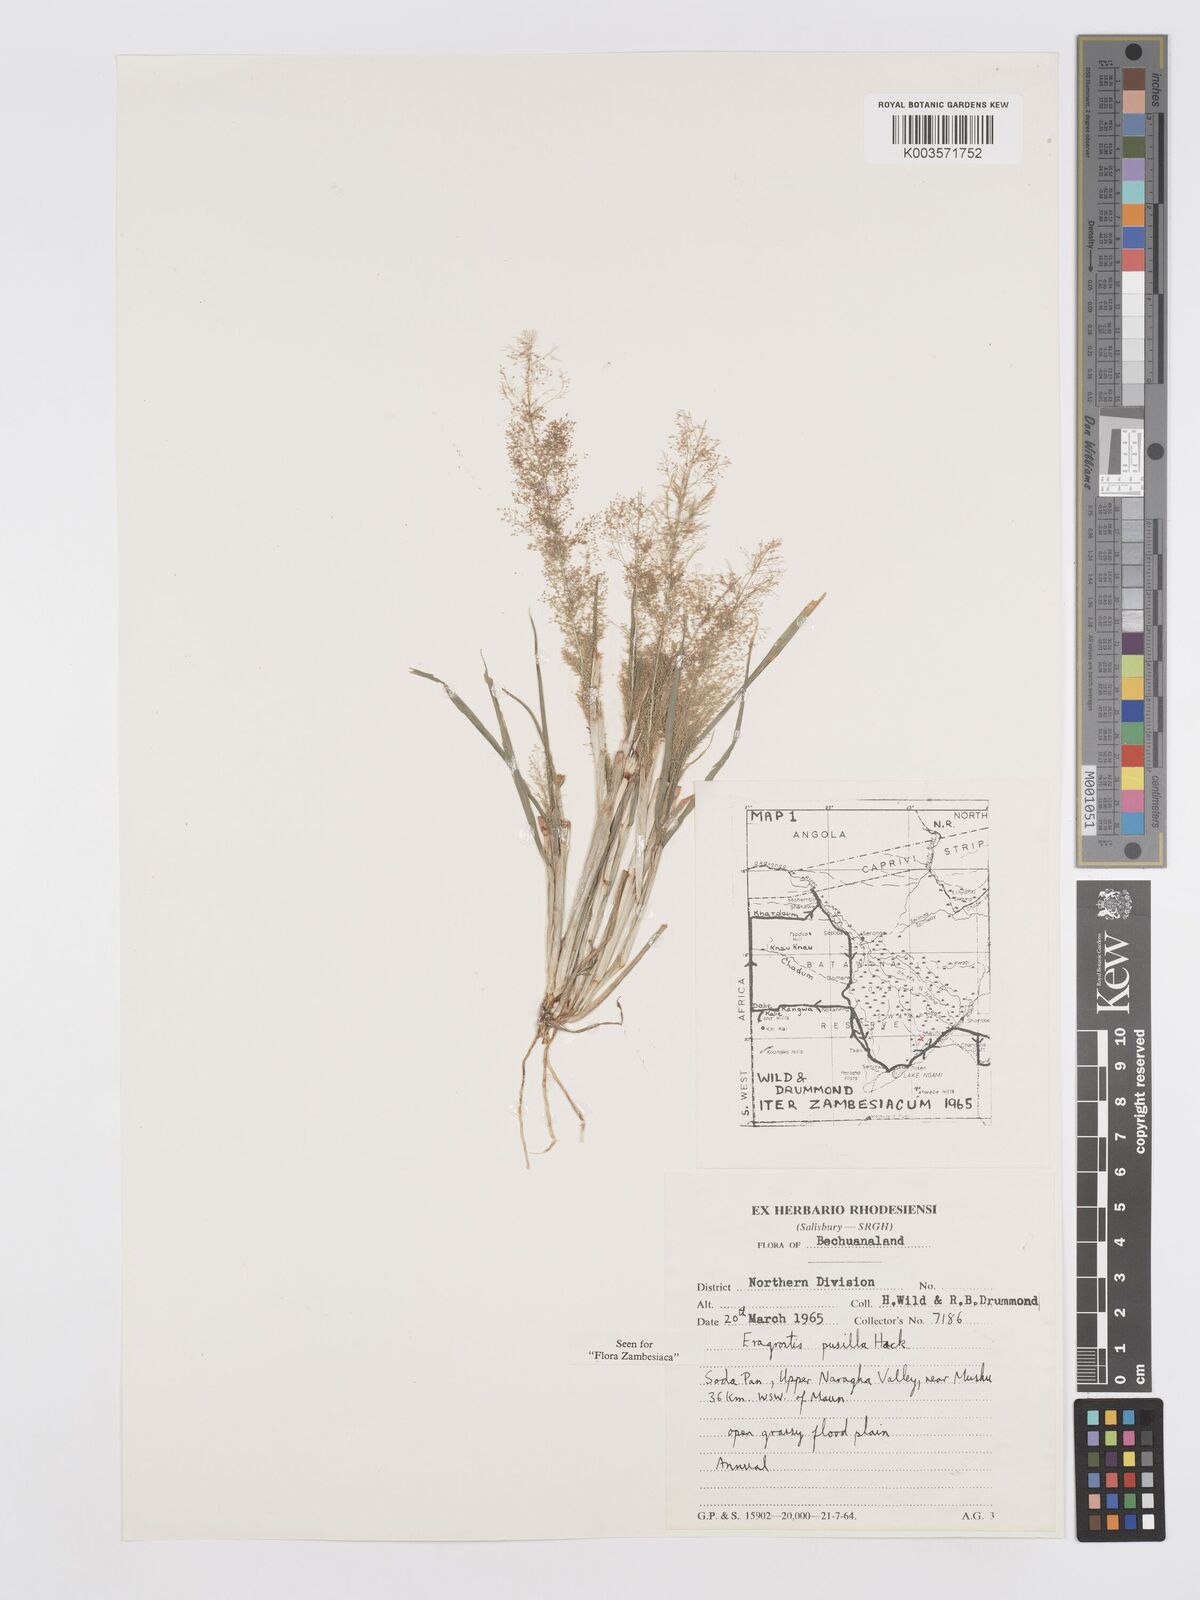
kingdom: Plantae
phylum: Tracheophyta
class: Liliopsida
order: Poales
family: Poaceae
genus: Eragrostis
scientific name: Eragrostis pusilla
